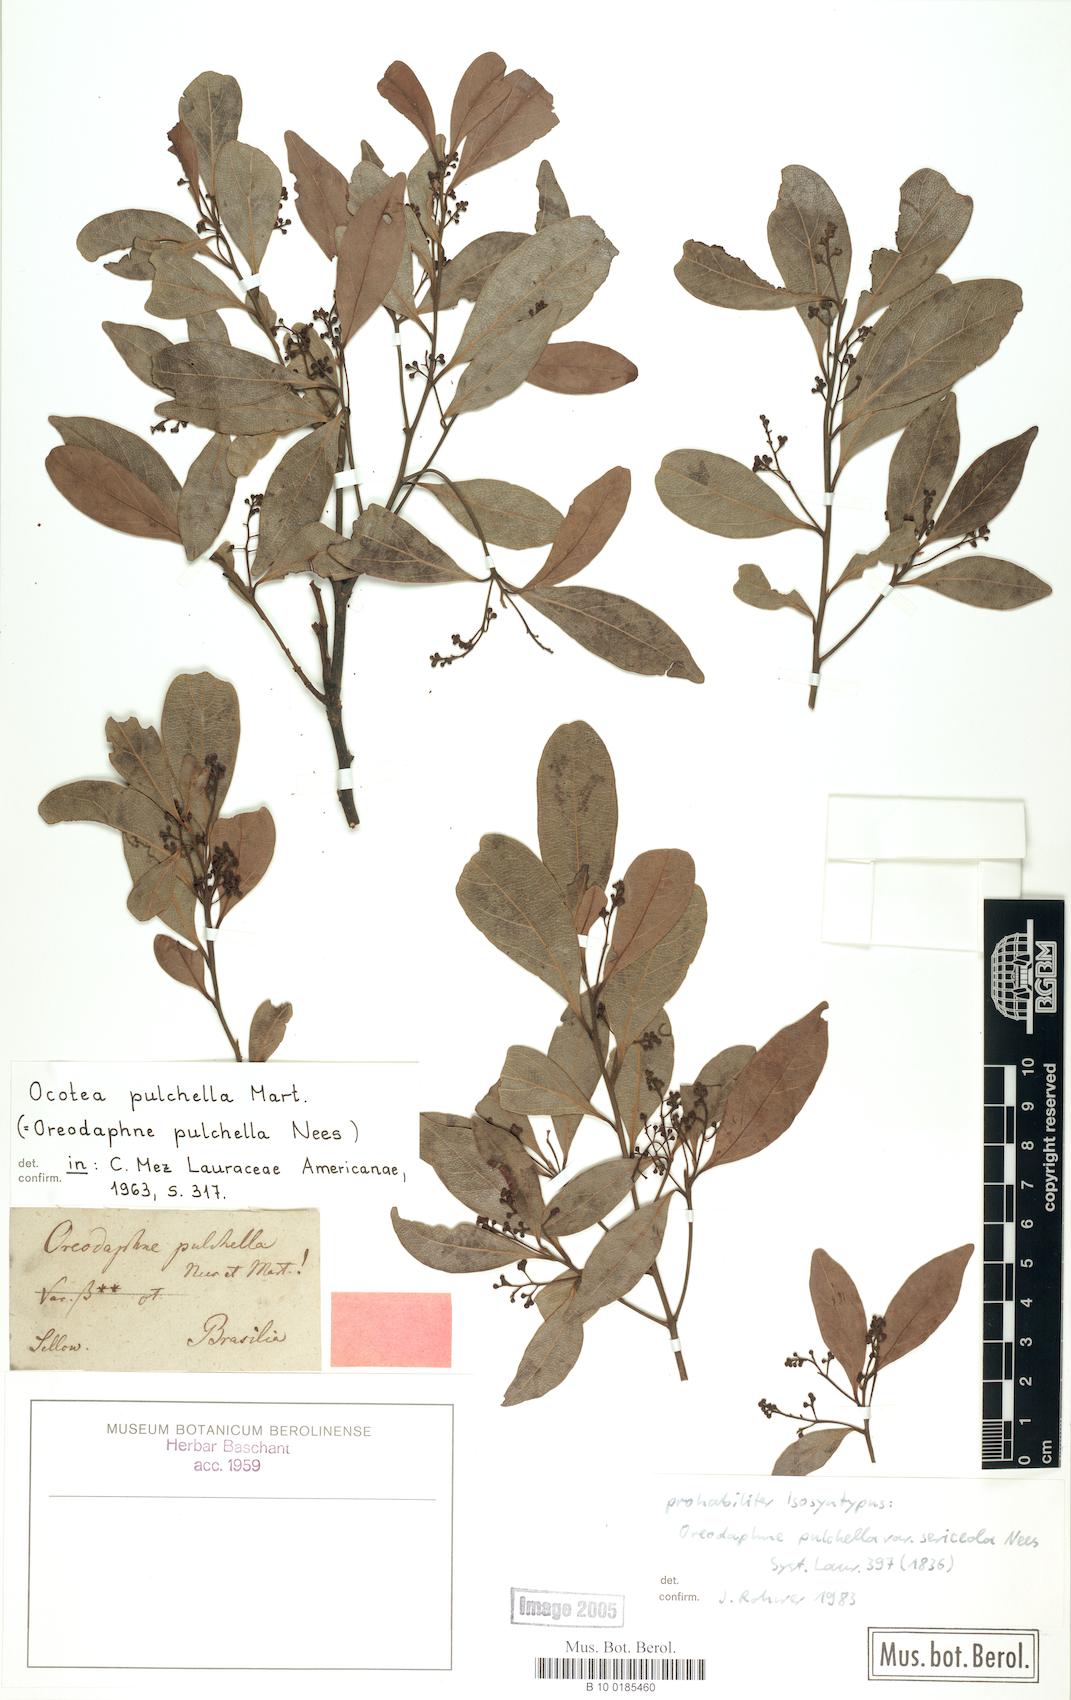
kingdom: Plantae
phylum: Tracheophyta
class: Magnoliopsida
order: Laurales
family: Lauraceae
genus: Mespilodaphne
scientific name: Mespilodaphne pulchella
